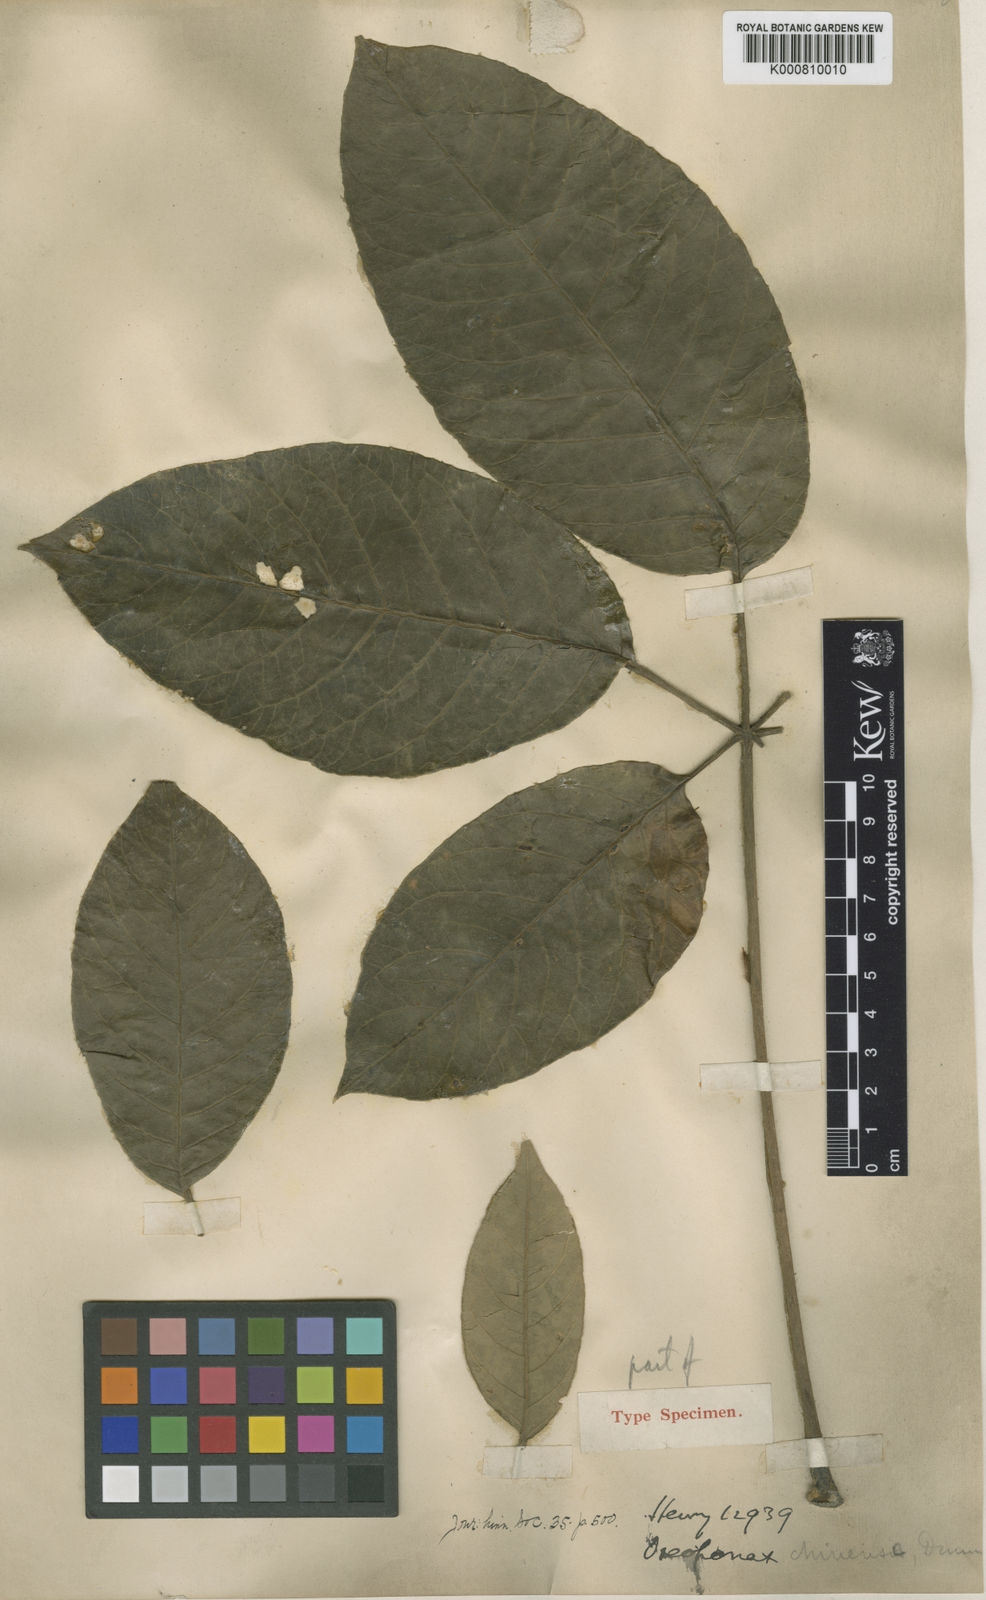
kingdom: Plantae
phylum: Tracheophyta
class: Magnoliopsida
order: Apiales
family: Araliaceae
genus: Heptapleurum
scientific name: Heptapleurum chinense
